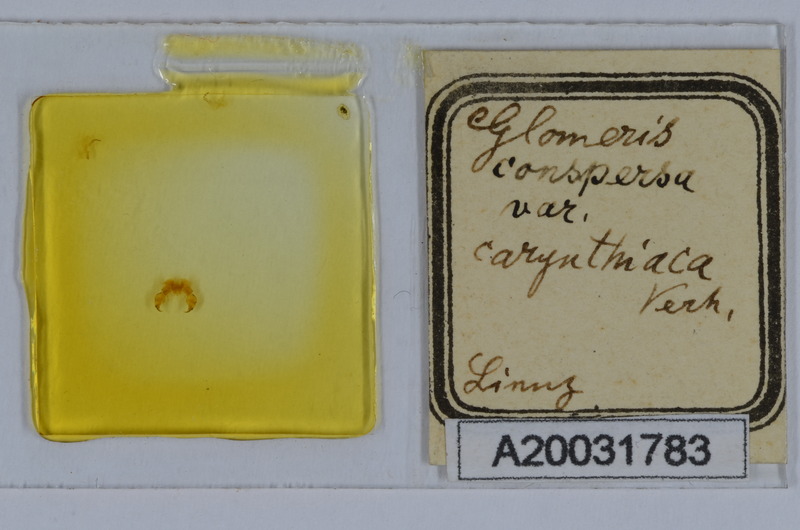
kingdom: Animalia
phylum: Arthropoda
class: Diplopoda
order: Glomerida
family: Glomeridae
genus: Glomeris
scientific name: Glomeris klugii
